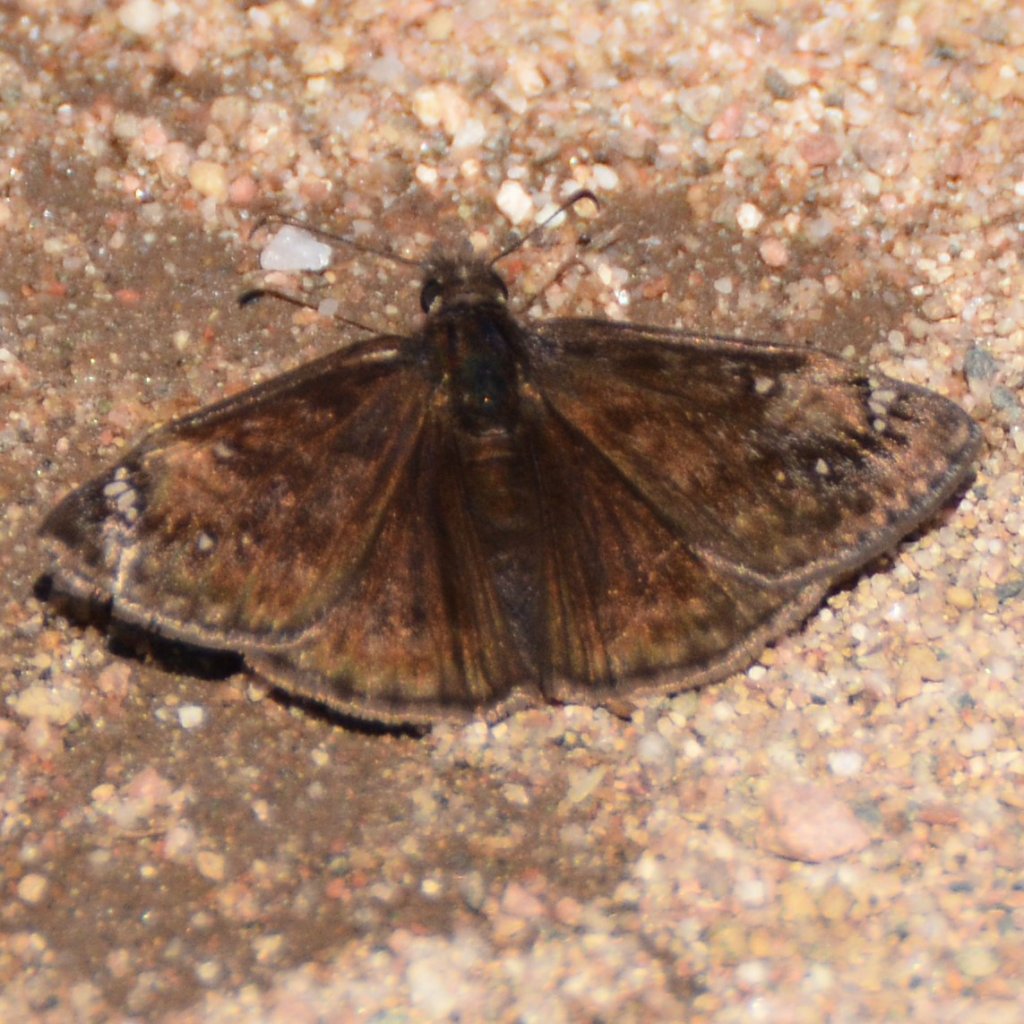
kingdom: Animalia
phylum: Arthropoda
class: Insecta
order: Lepidoptera
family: Hesperiidae
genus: Gesta
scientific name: Gesta
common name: Juvenal's Duskywing
